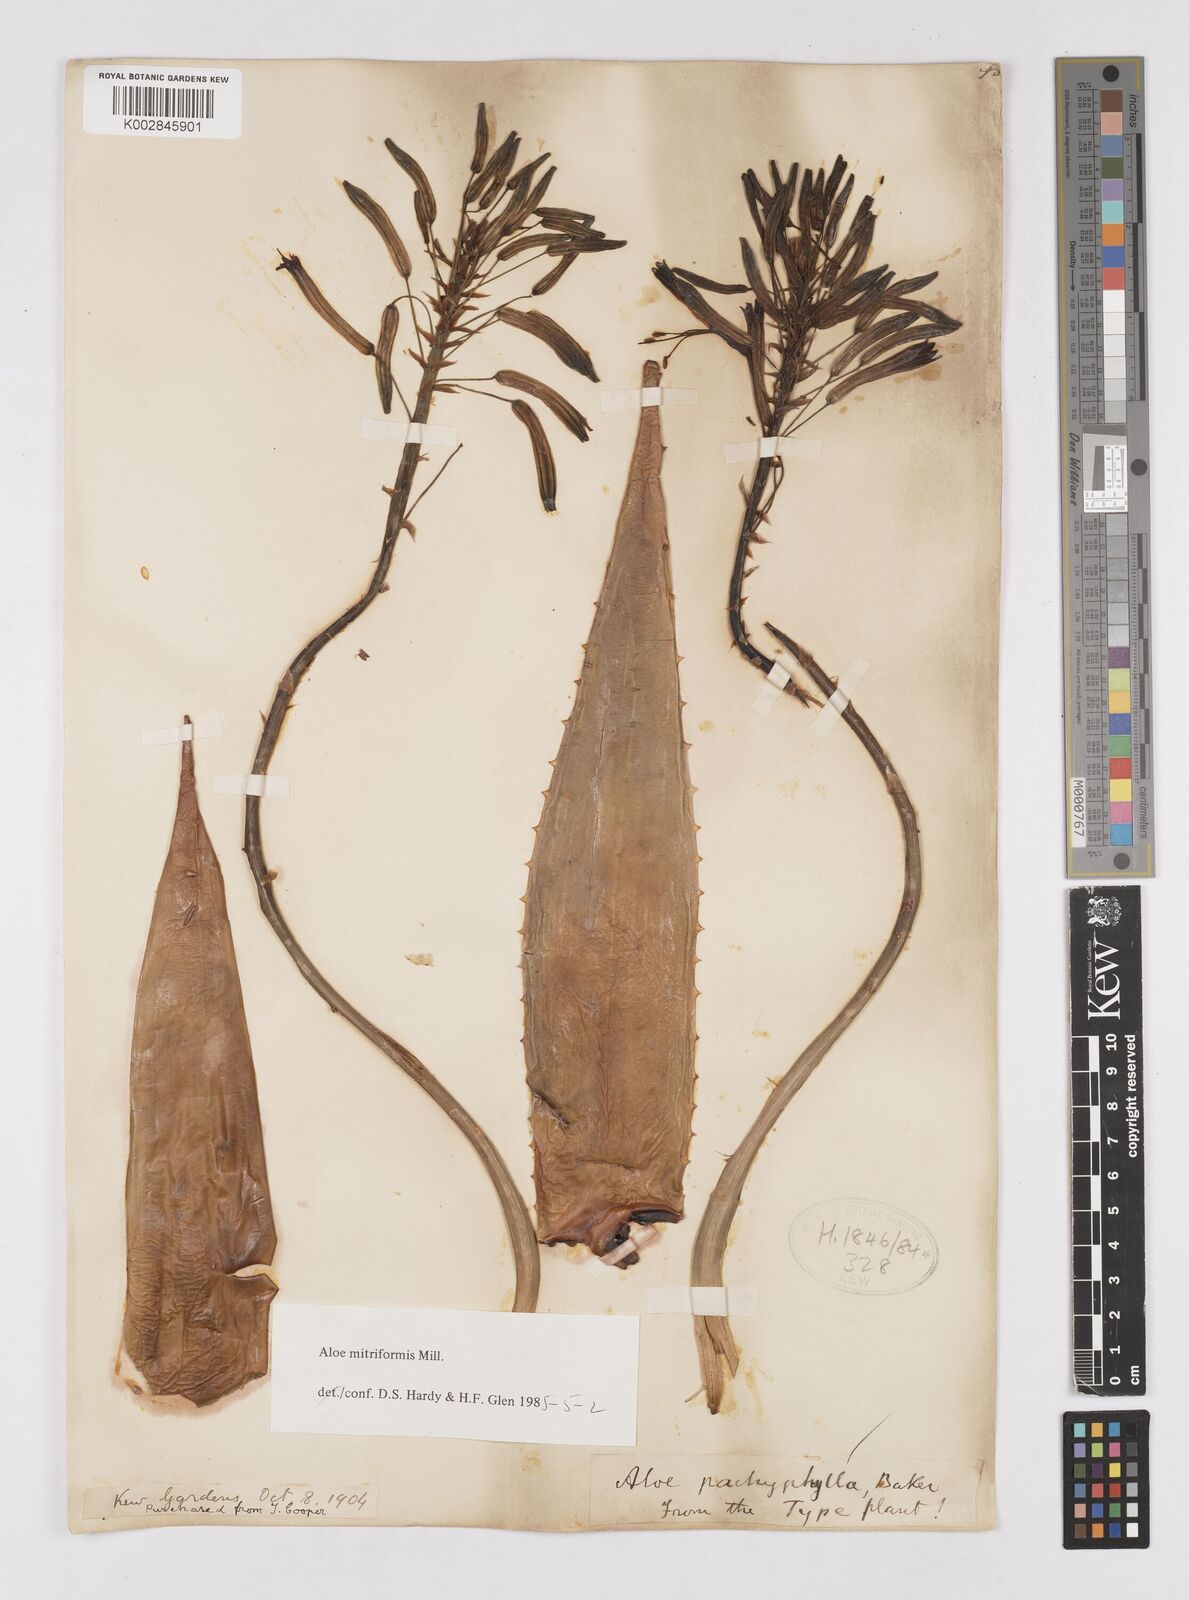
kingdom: Plantae
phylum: Tracheophyta
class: Liliopsida
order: Asparagales
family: Asphodelaceae
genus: Aloe
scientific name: Aloe perfoliata
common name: Mitra aloe
